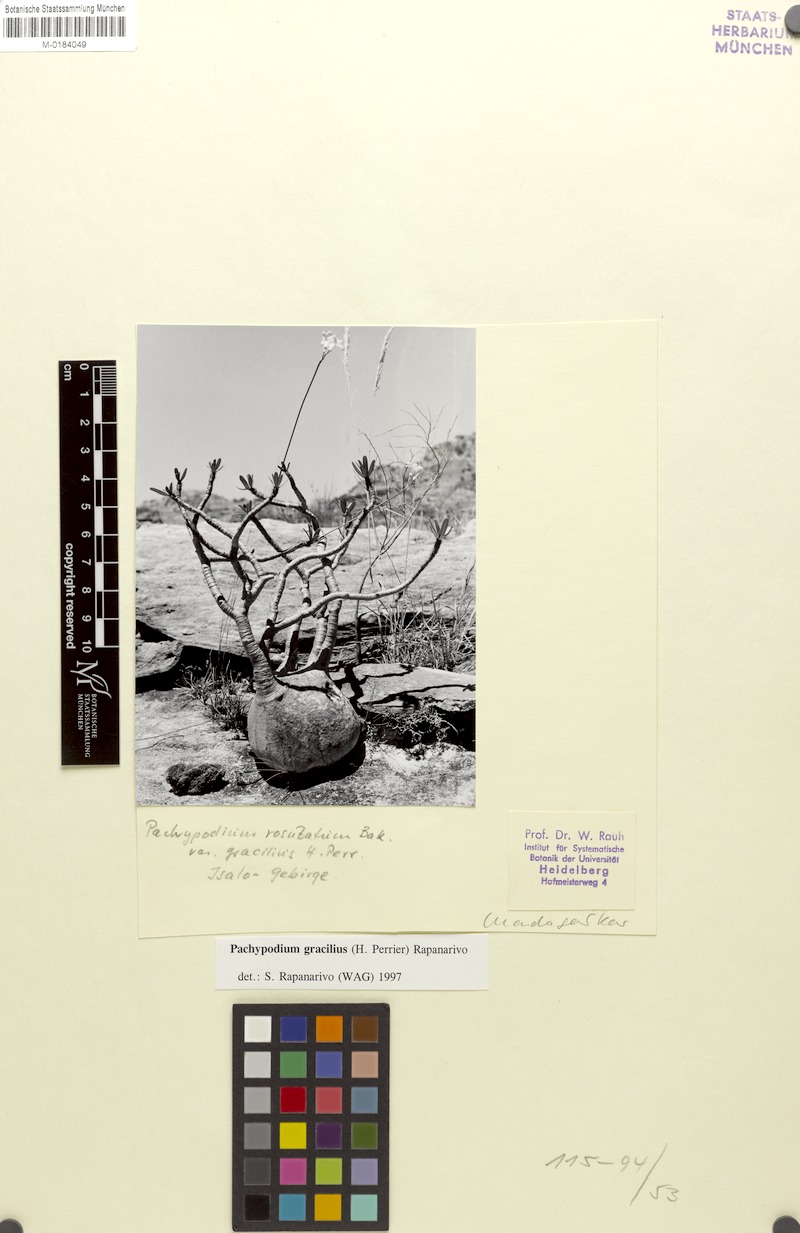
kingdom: Plantae
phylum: Tracheophyta
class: Magnoliopsida
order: Gentianales
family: Apocynaceae
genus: Pachypodium
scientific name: Pachypodium gracilius
